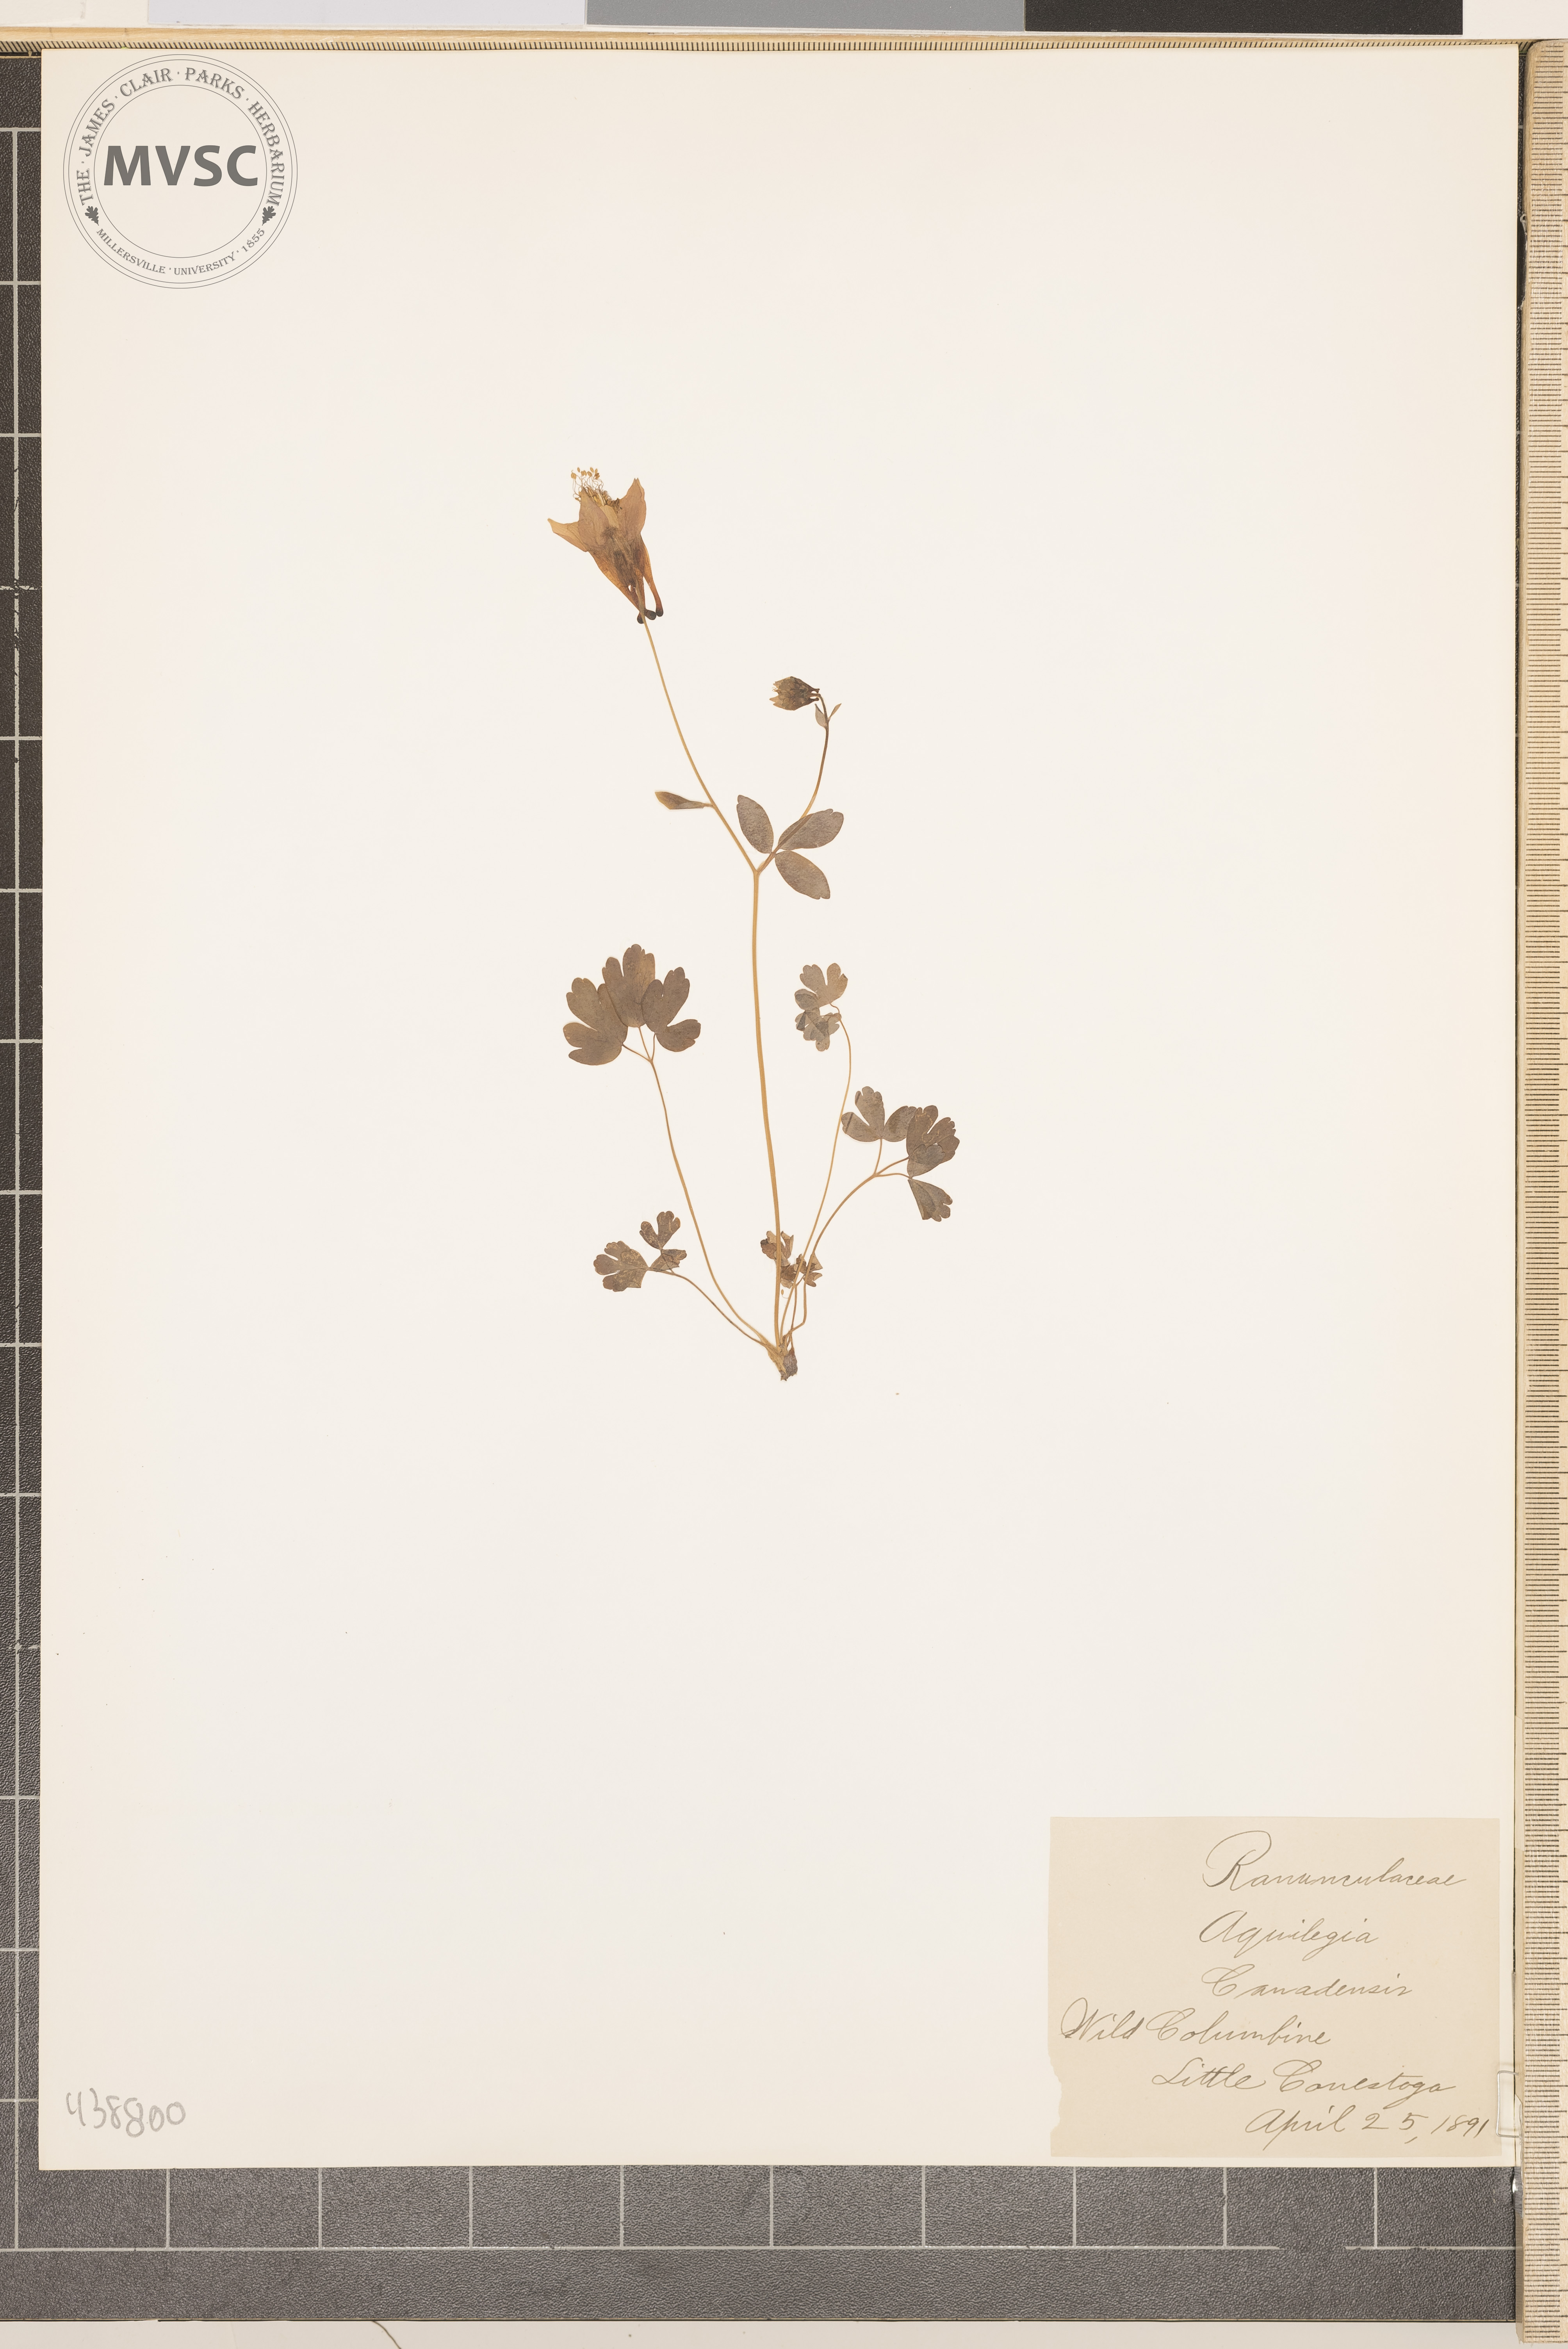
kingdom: Plantae
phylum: Tracheophyta
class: Magnoliopsida
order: Ranunculales
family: Ranunculaceae
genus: Aquilegia
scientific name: Aquilegia canadensis
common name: Wild columbine
